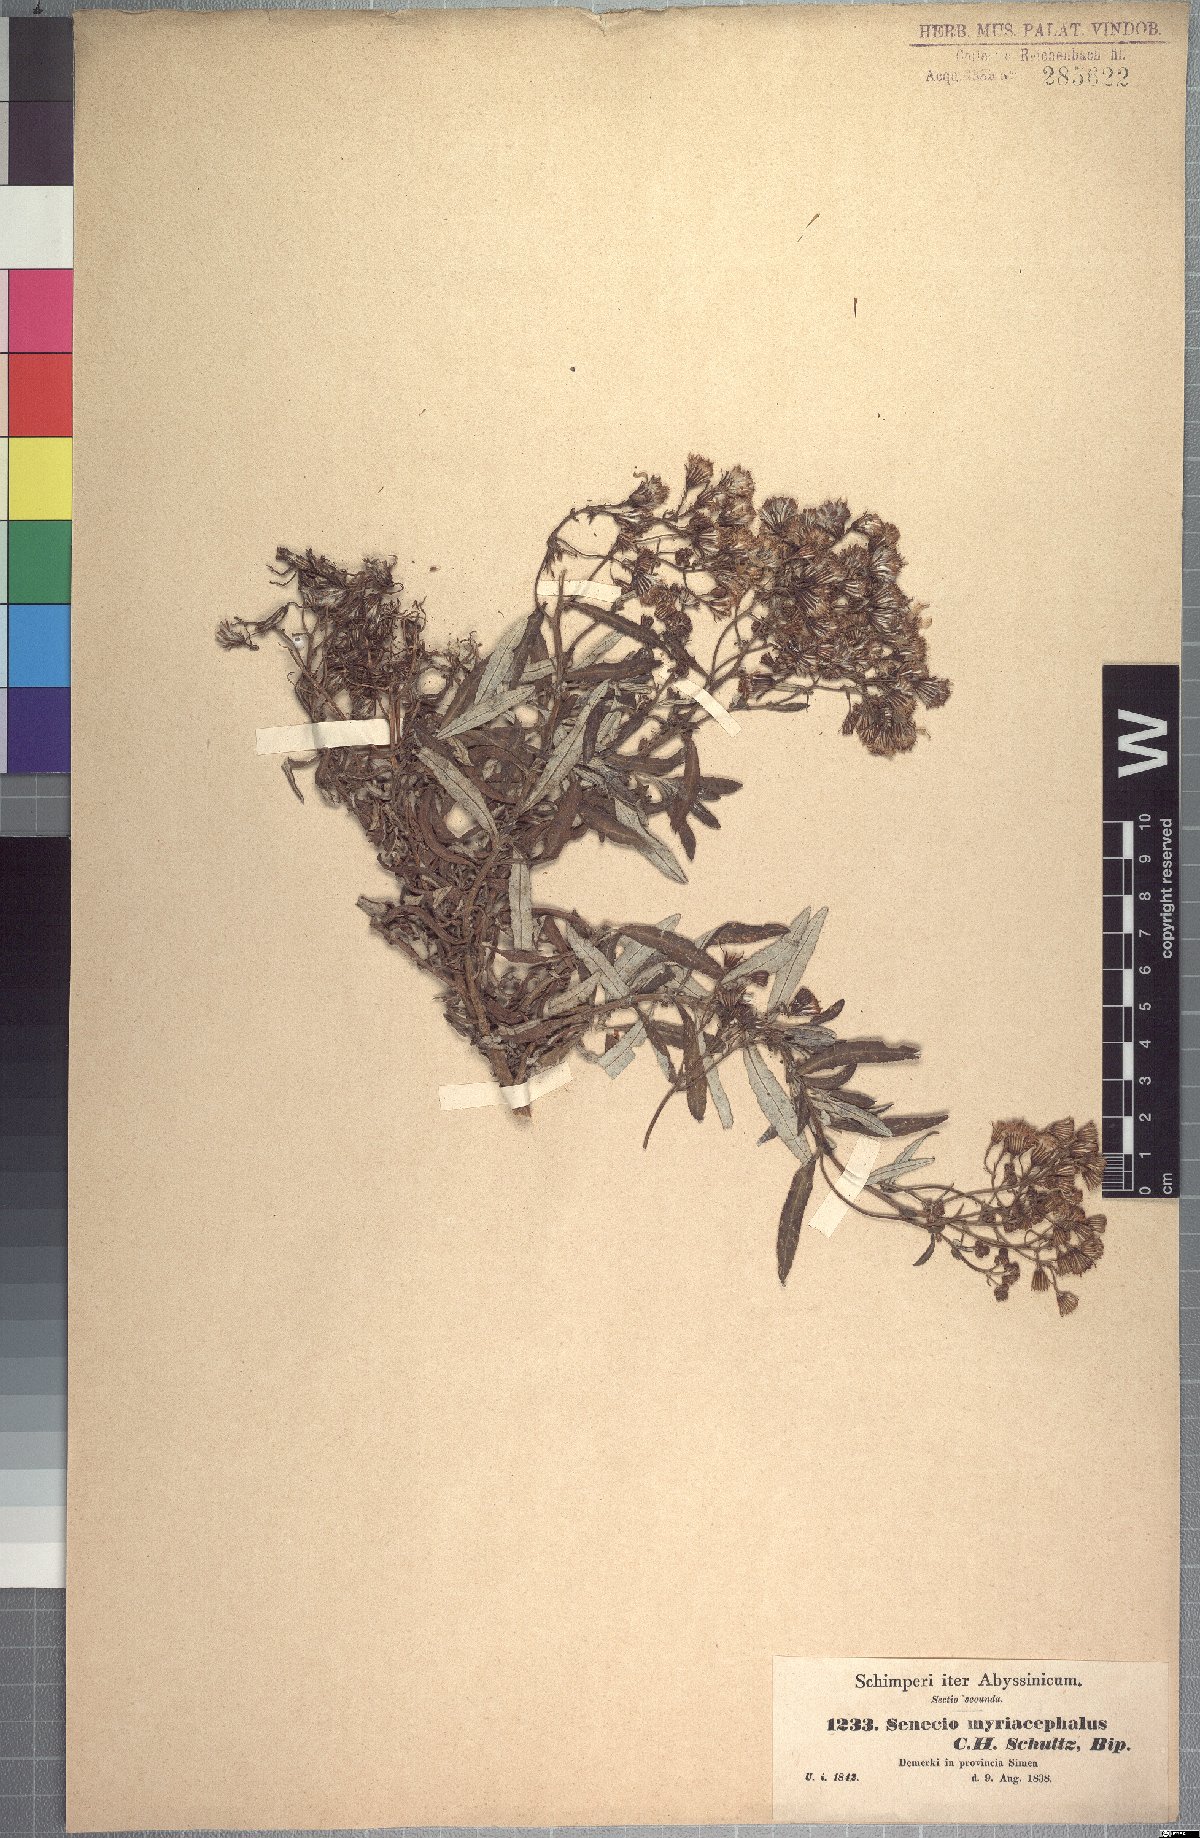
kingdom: Plantae
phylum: Tracheophyta
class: Magnoliopsida
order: Asterales
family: Asteraceae
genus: Senecio
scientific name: Senecio myriocephalus
